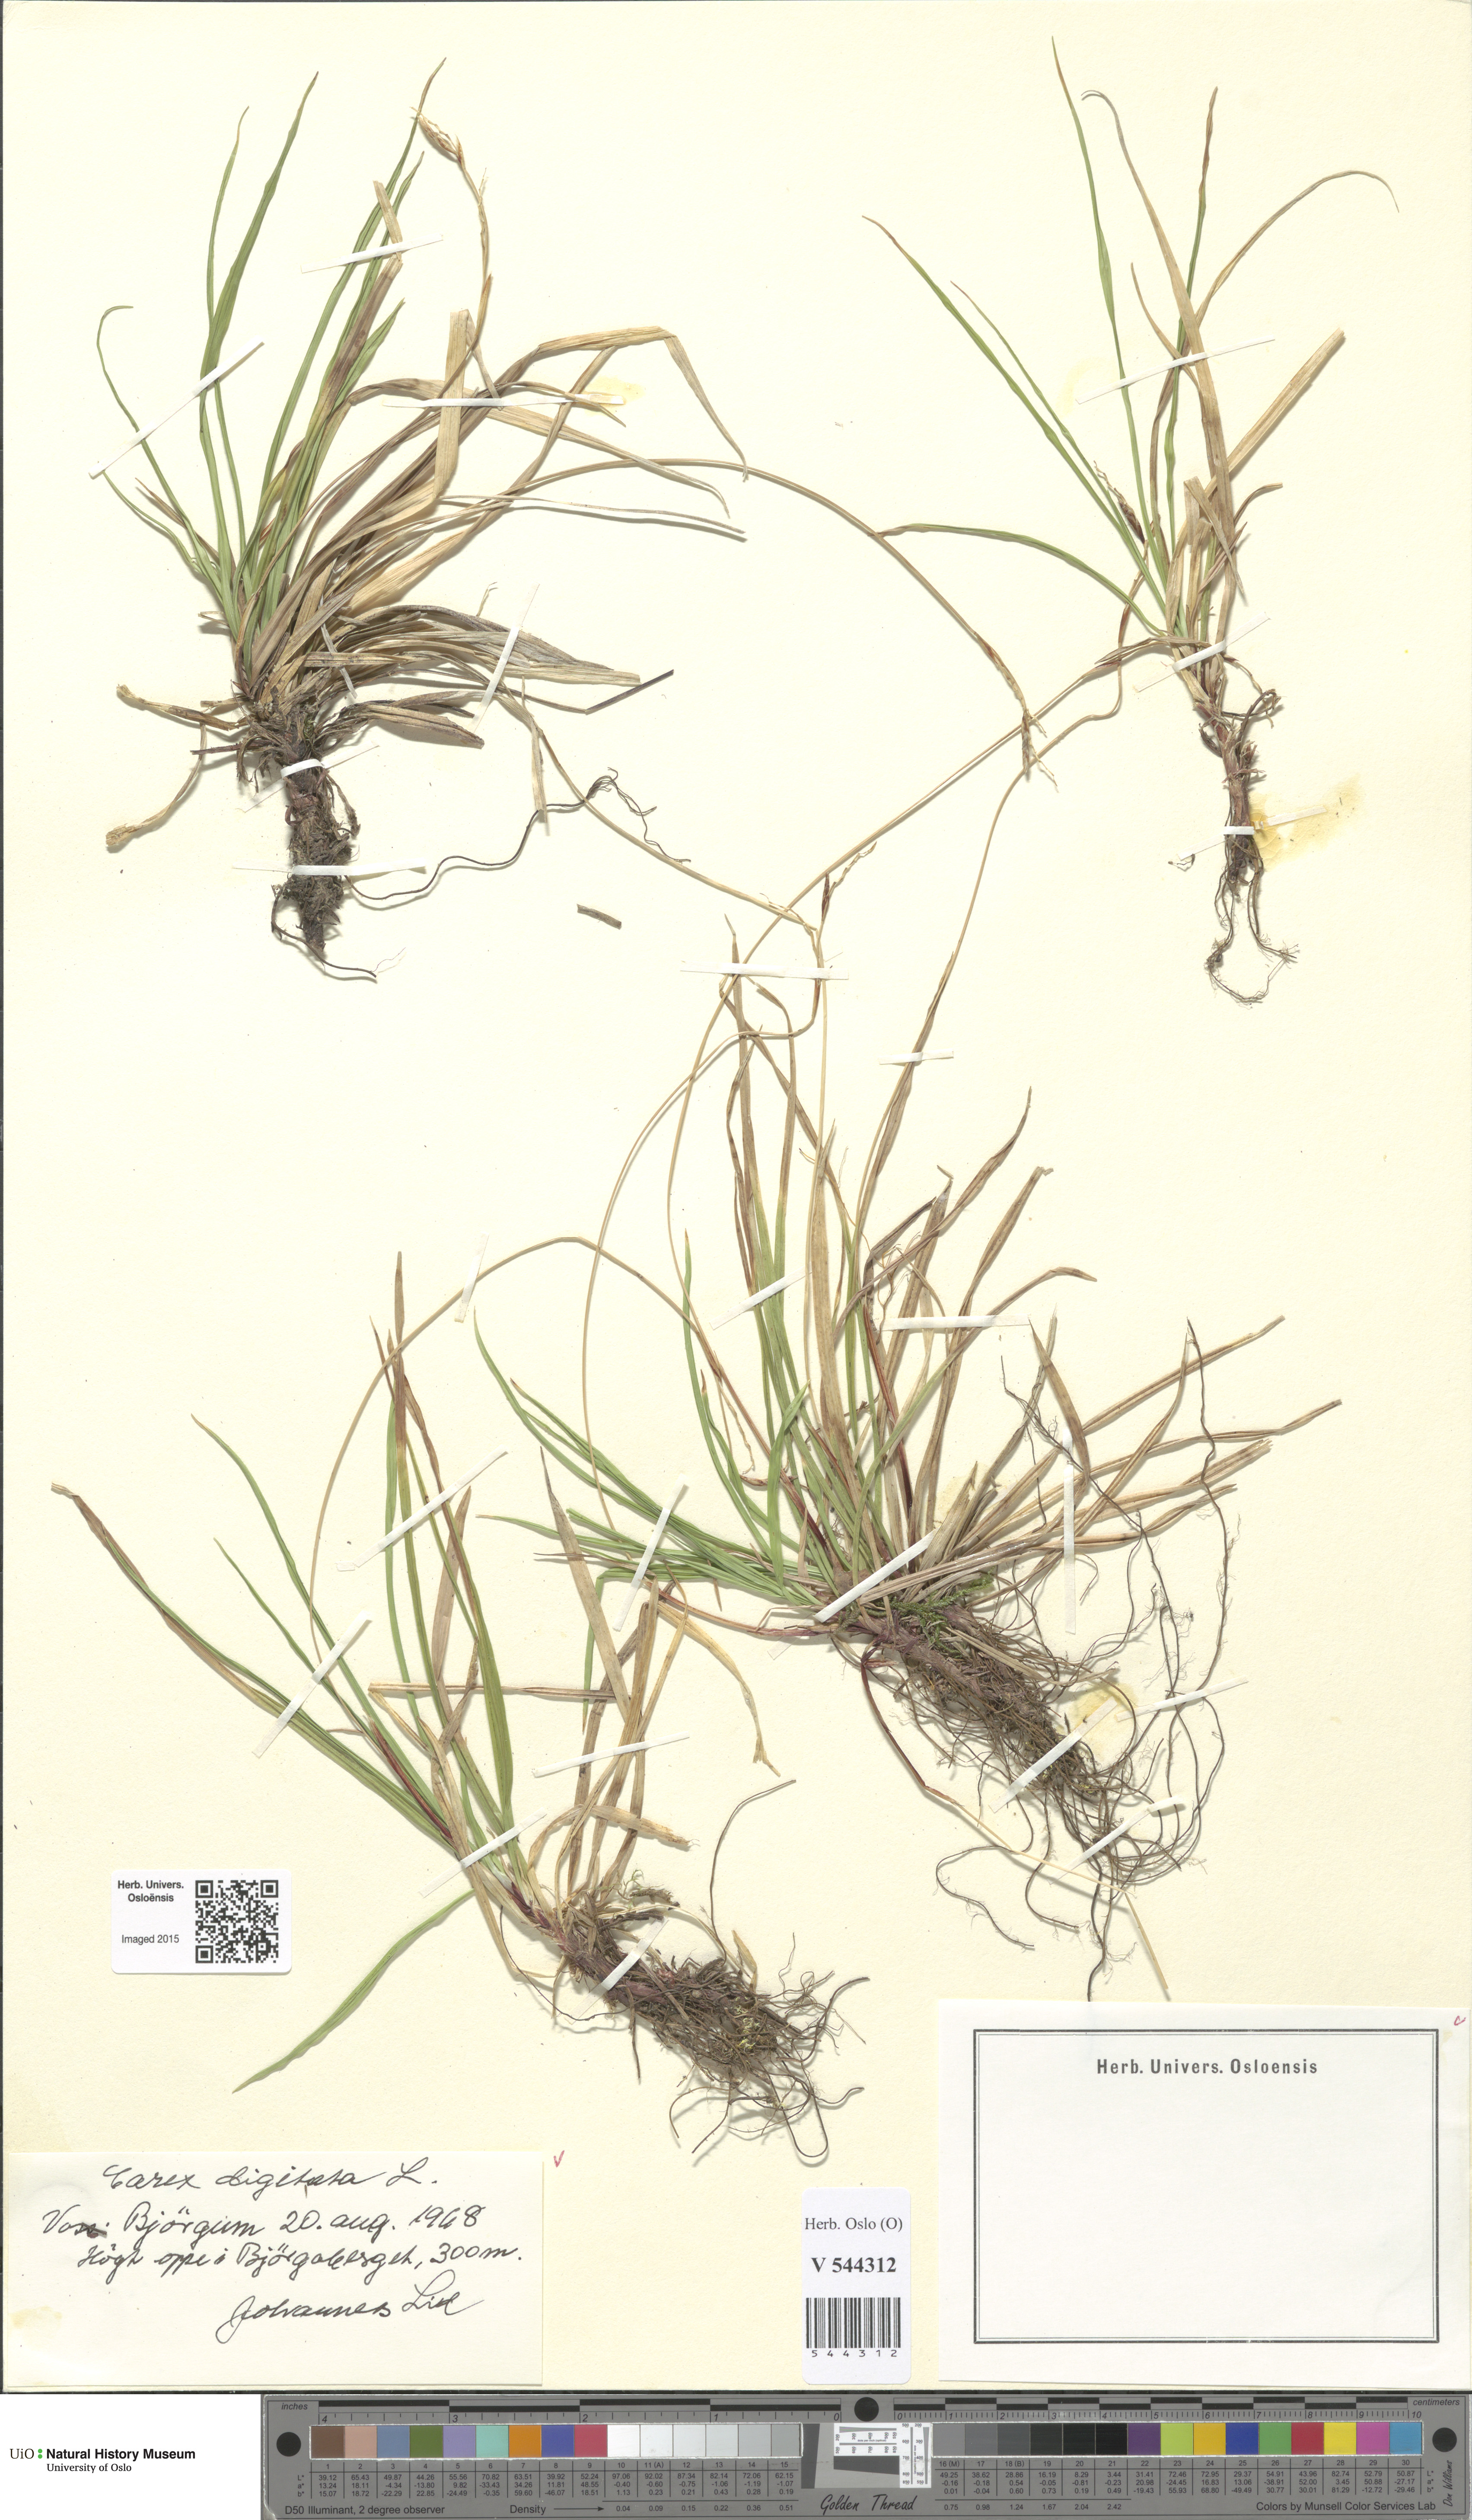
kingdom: Plantae
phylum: Tracheophyta
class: Liliopsida
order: Poales
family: Cyperaceae
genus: Carex
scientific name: Carex digitata
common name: Fingered sedge
